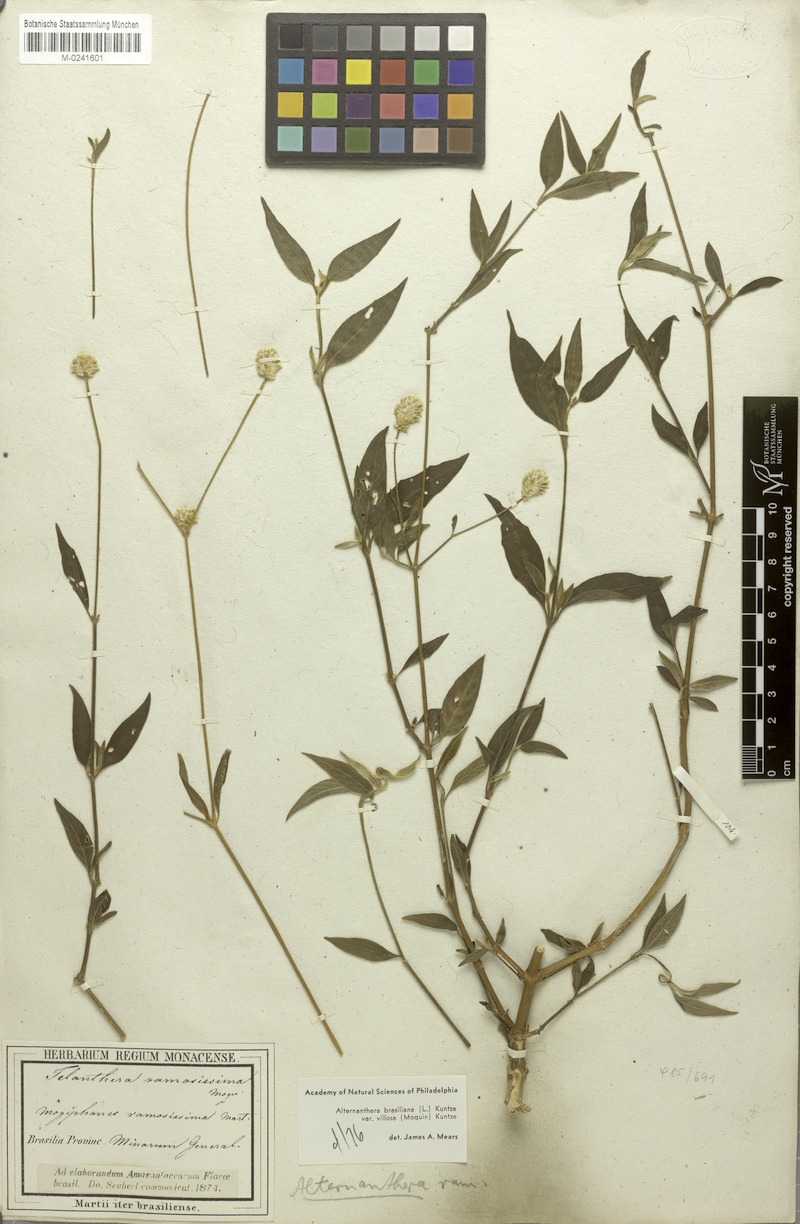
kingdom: Plantae
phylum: Tracheophyta
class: Magnoliopsida
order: Caryophyllales
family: Amaranthaceae
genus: Alternanthera
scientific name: Alternanthera ramosissima
